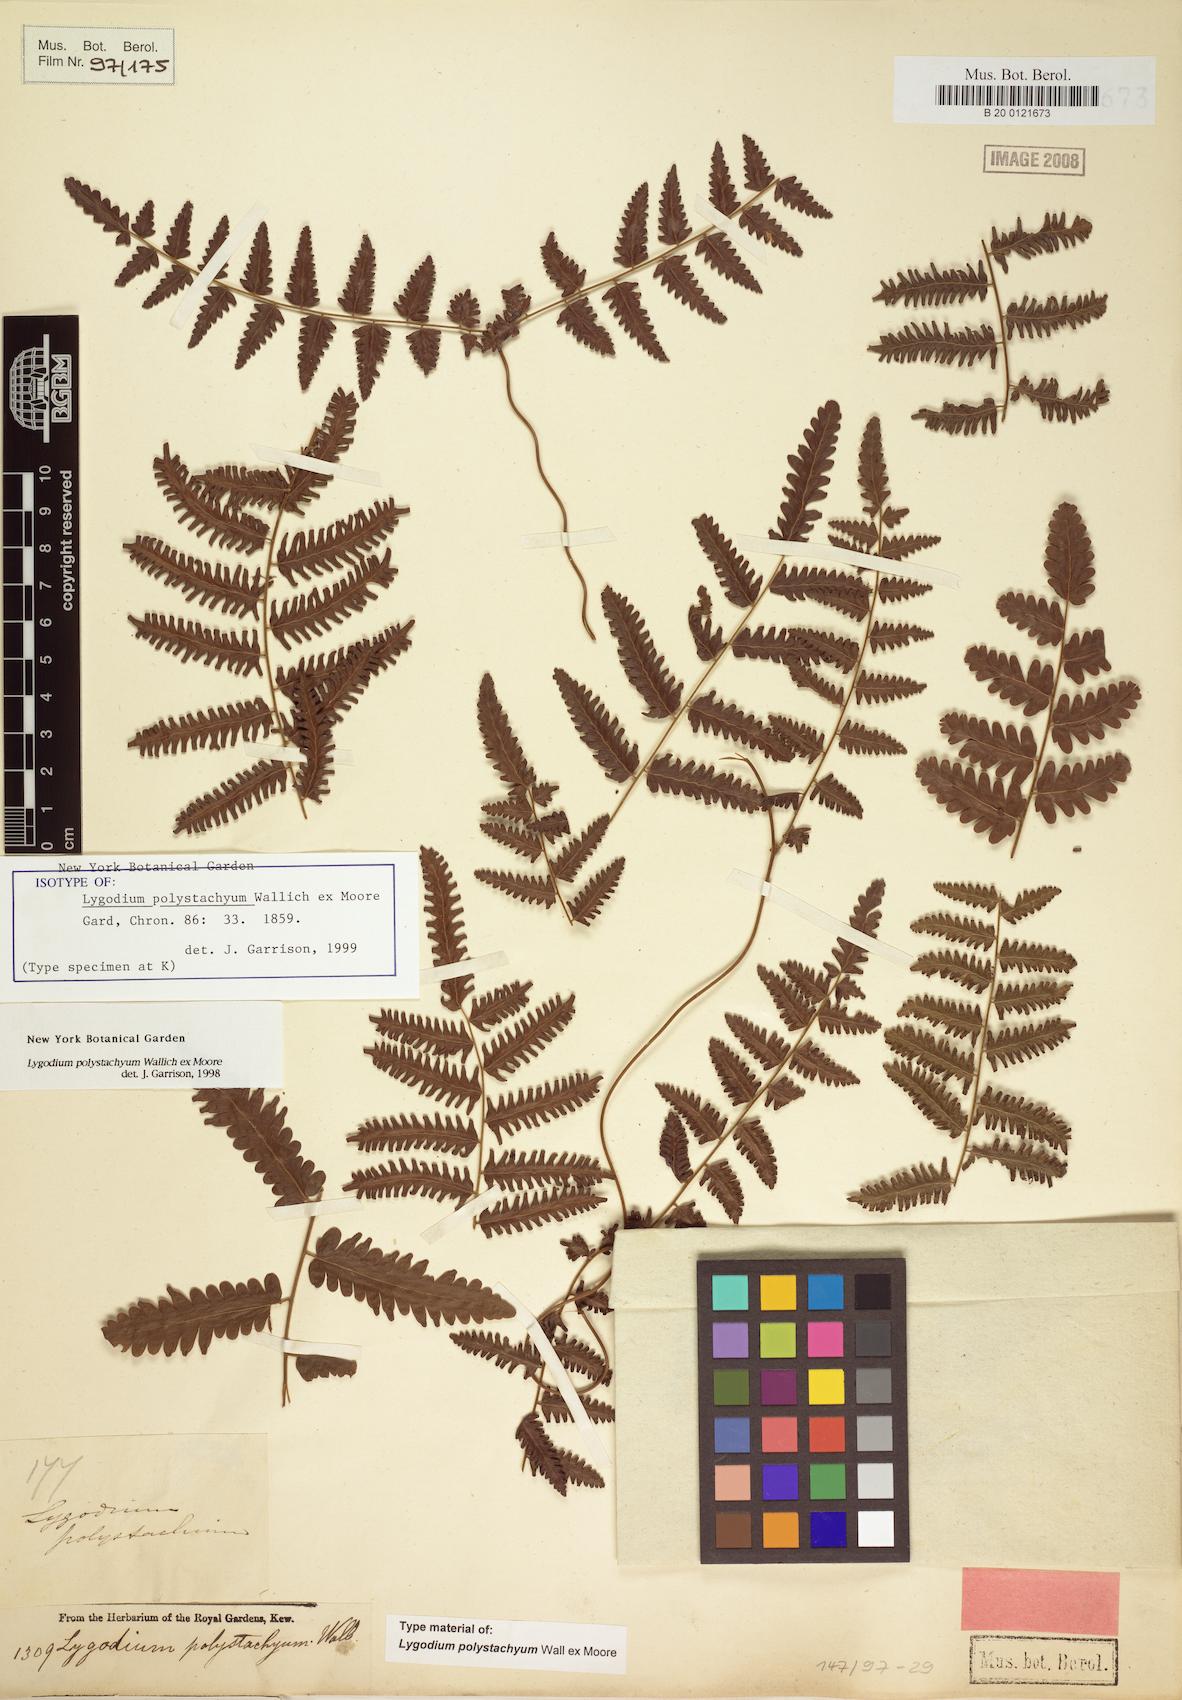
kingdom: Plantae
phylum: Tracheophyta
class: Polypodiopsida
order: Schizaeales
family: Lygodiaceae
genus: Lygodium
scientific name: Lygodium polystachyum
